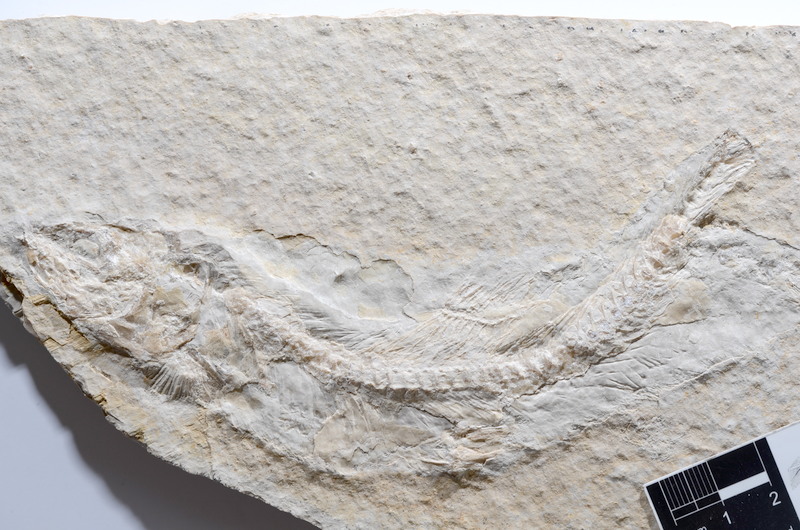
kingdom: Animalia
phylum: Chordata
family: Ascalaboidae
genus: Tharsis
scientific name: Tharsis dubius
